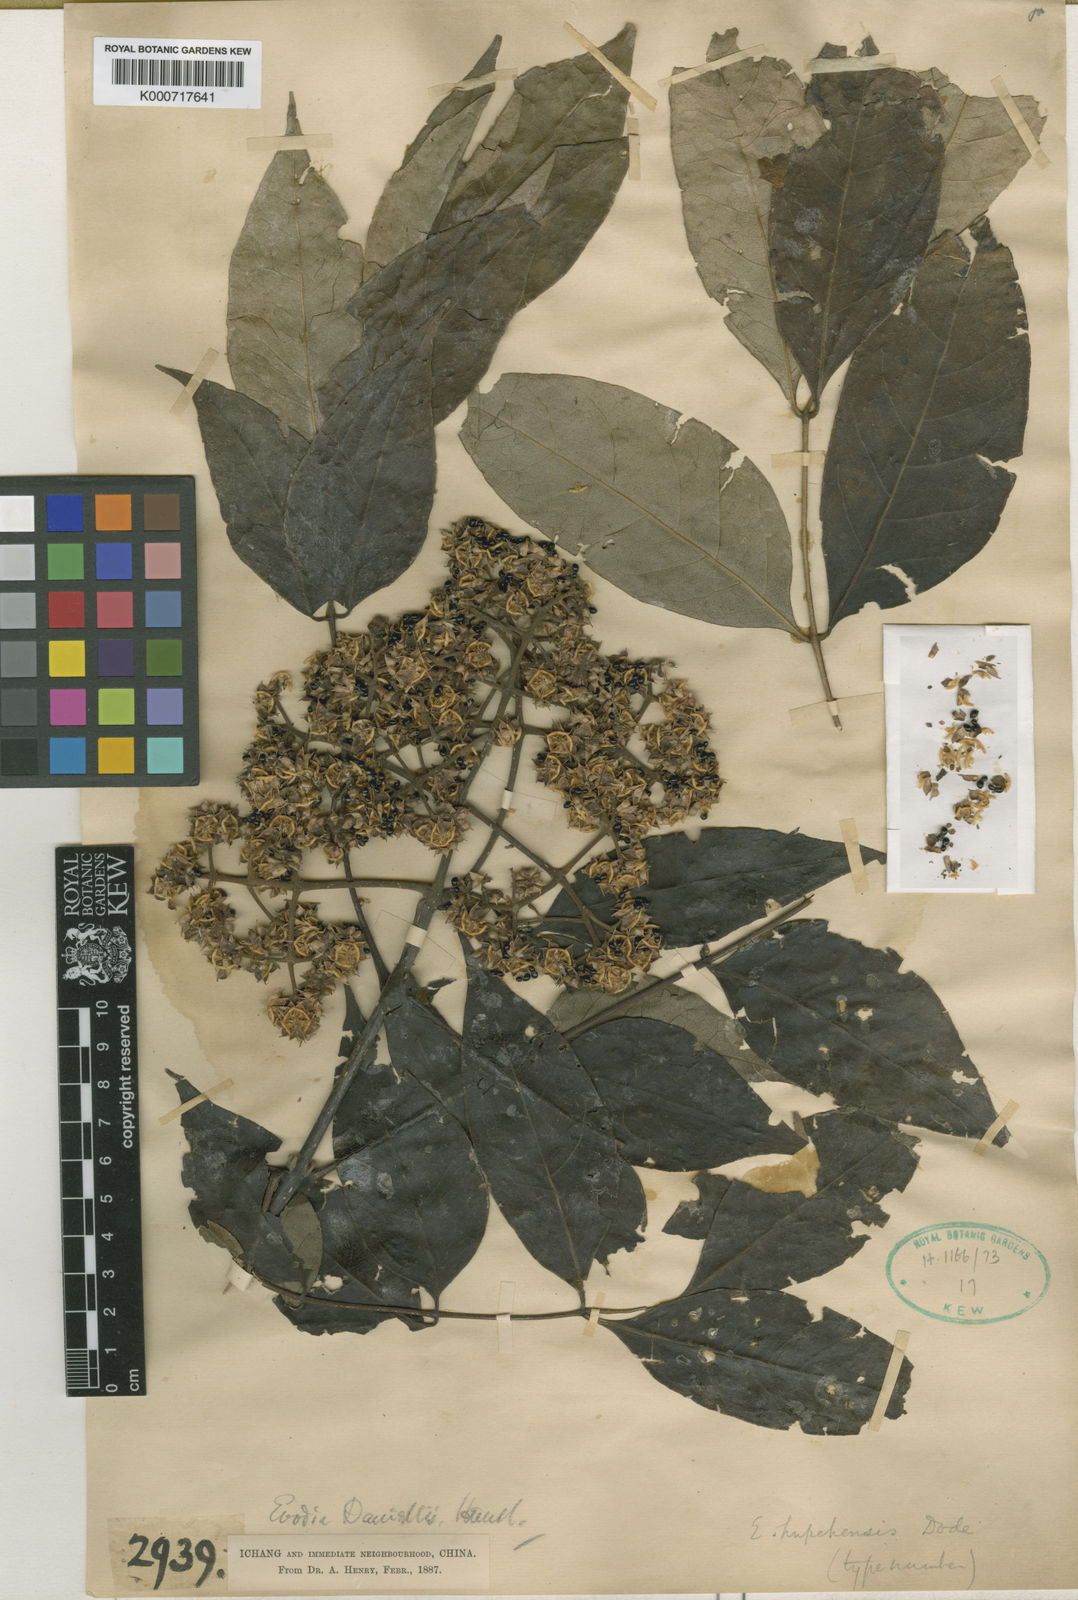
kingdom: Plantae
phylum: Tracheophyta
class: Magnoliopsida
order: Sapindales
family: Rutaceae
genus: Tetradium
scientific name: Tetradium daniellii
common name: Bee-bee tree
